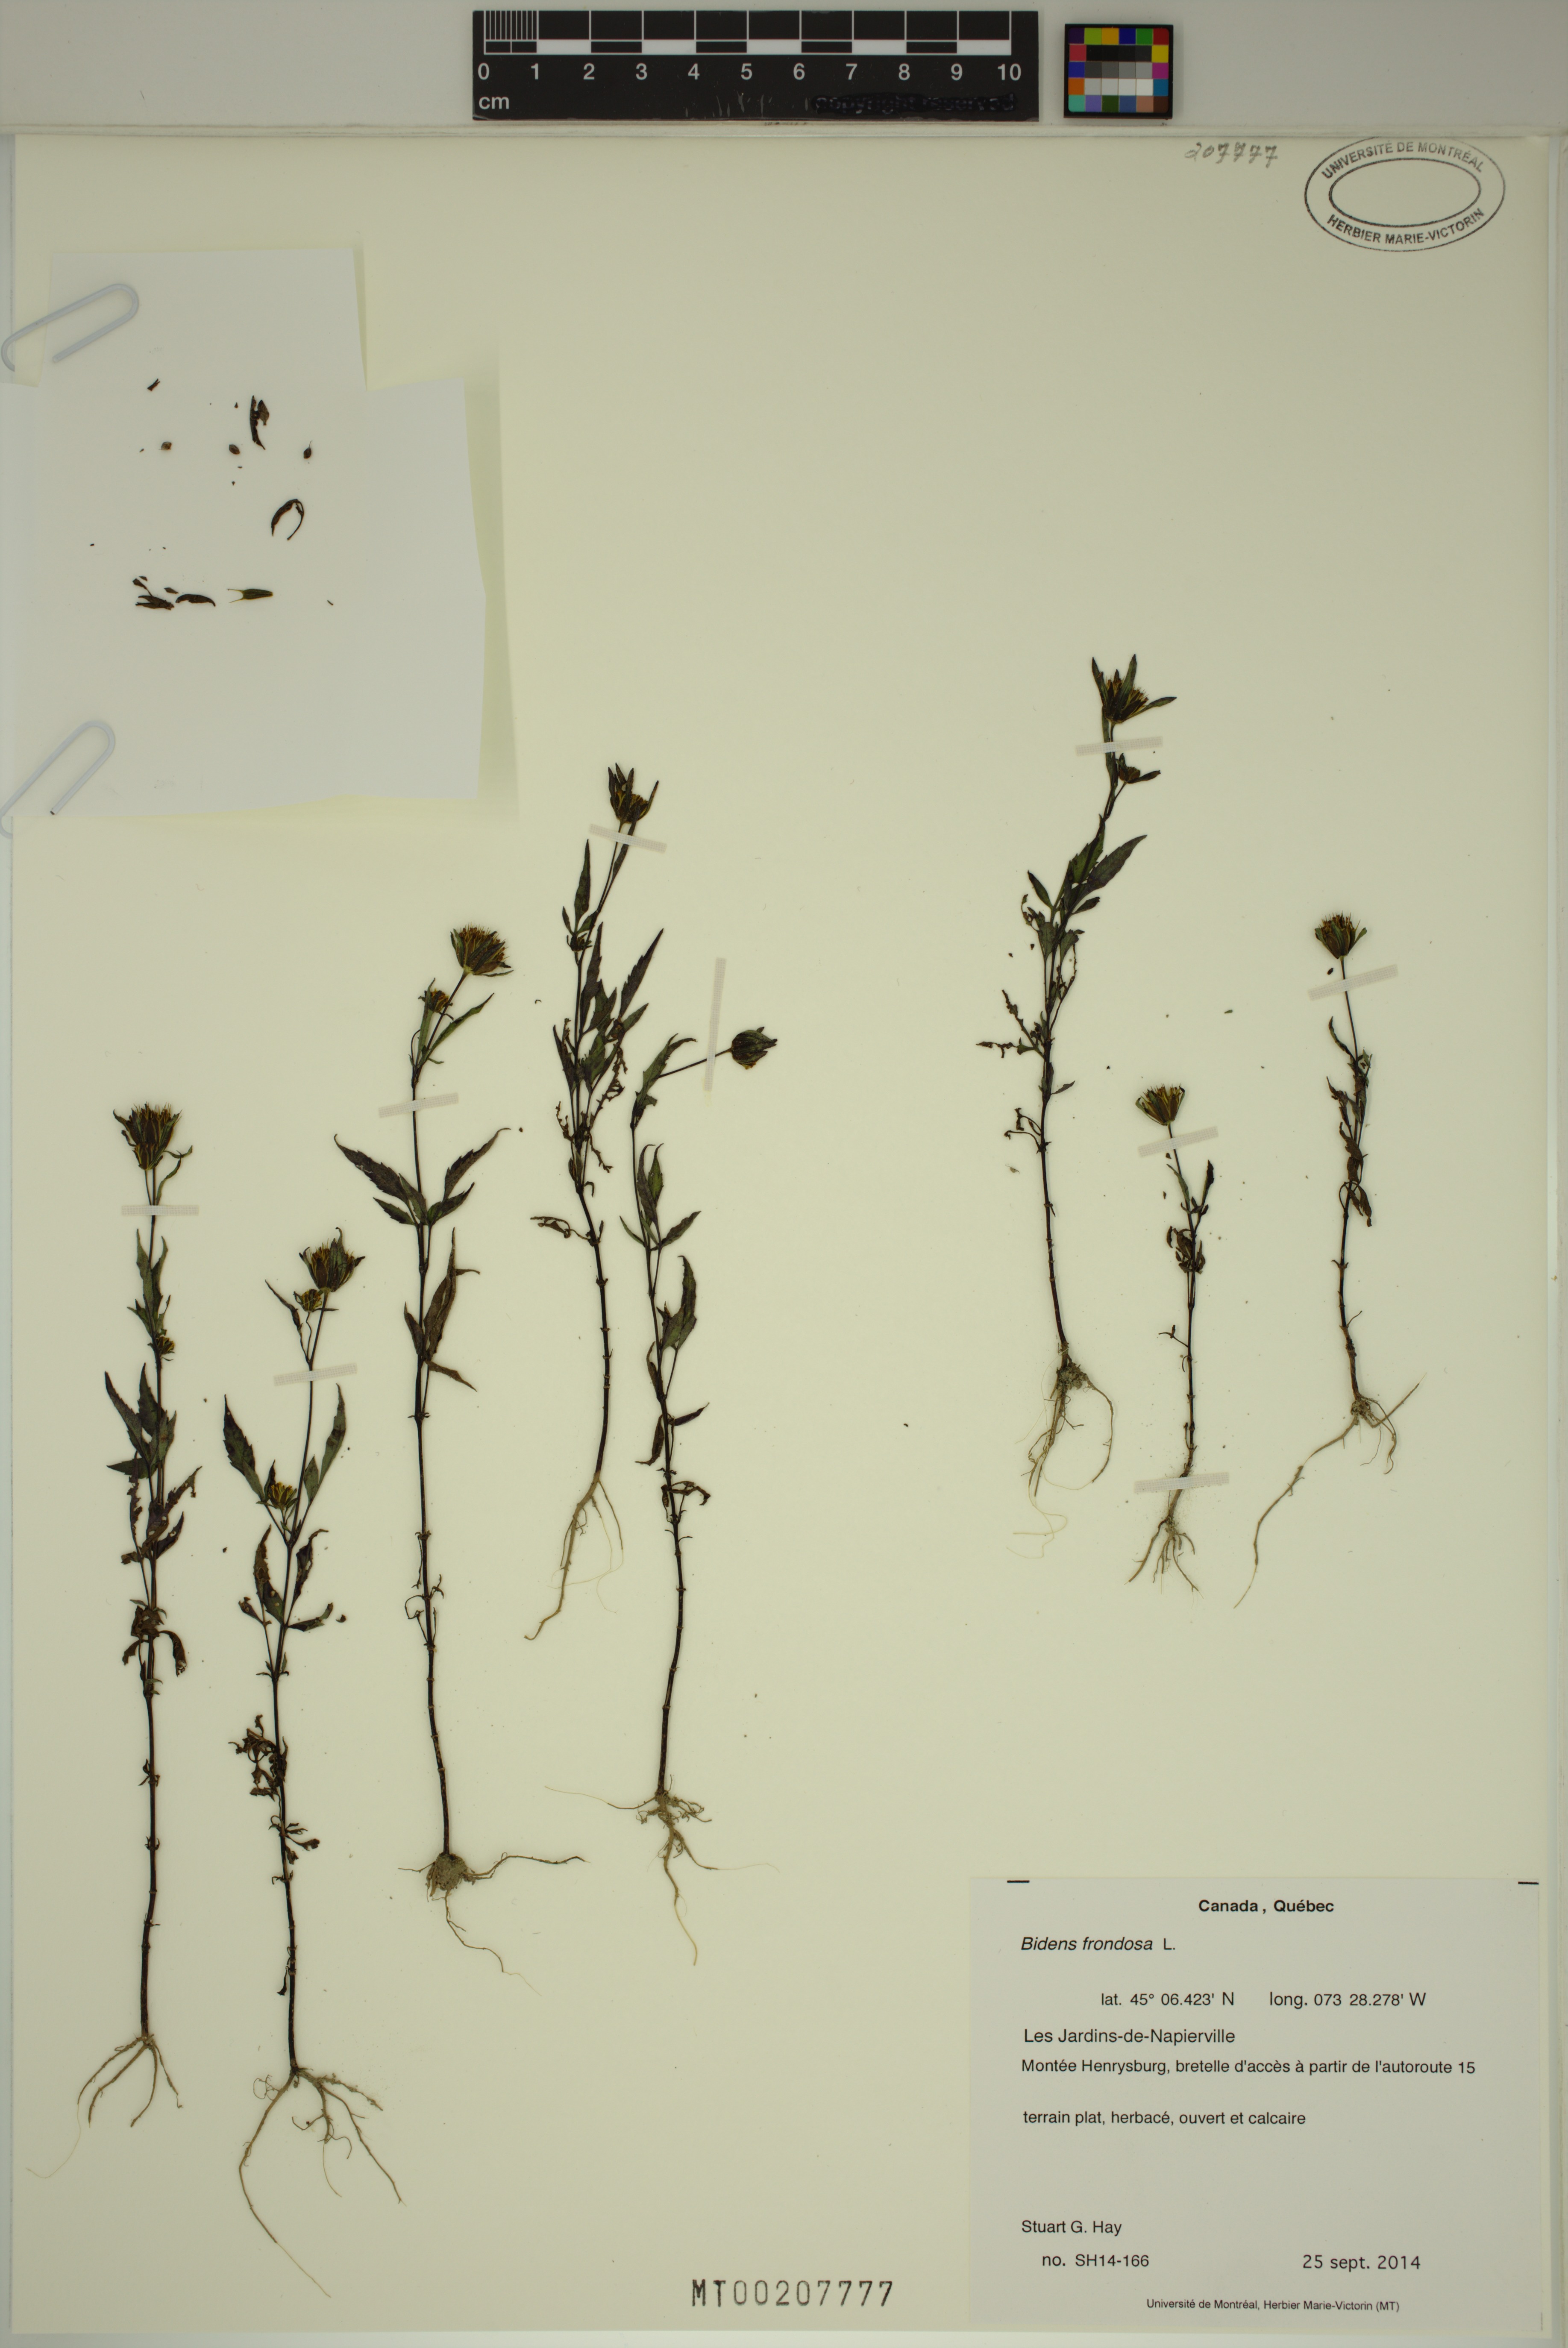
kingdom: Plantae
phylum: Tracheophyta
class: Magnoliopsida
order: Asterales
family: Asteraceae
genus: Bidens
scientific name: Bidens frondosa
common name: Beggarticks
